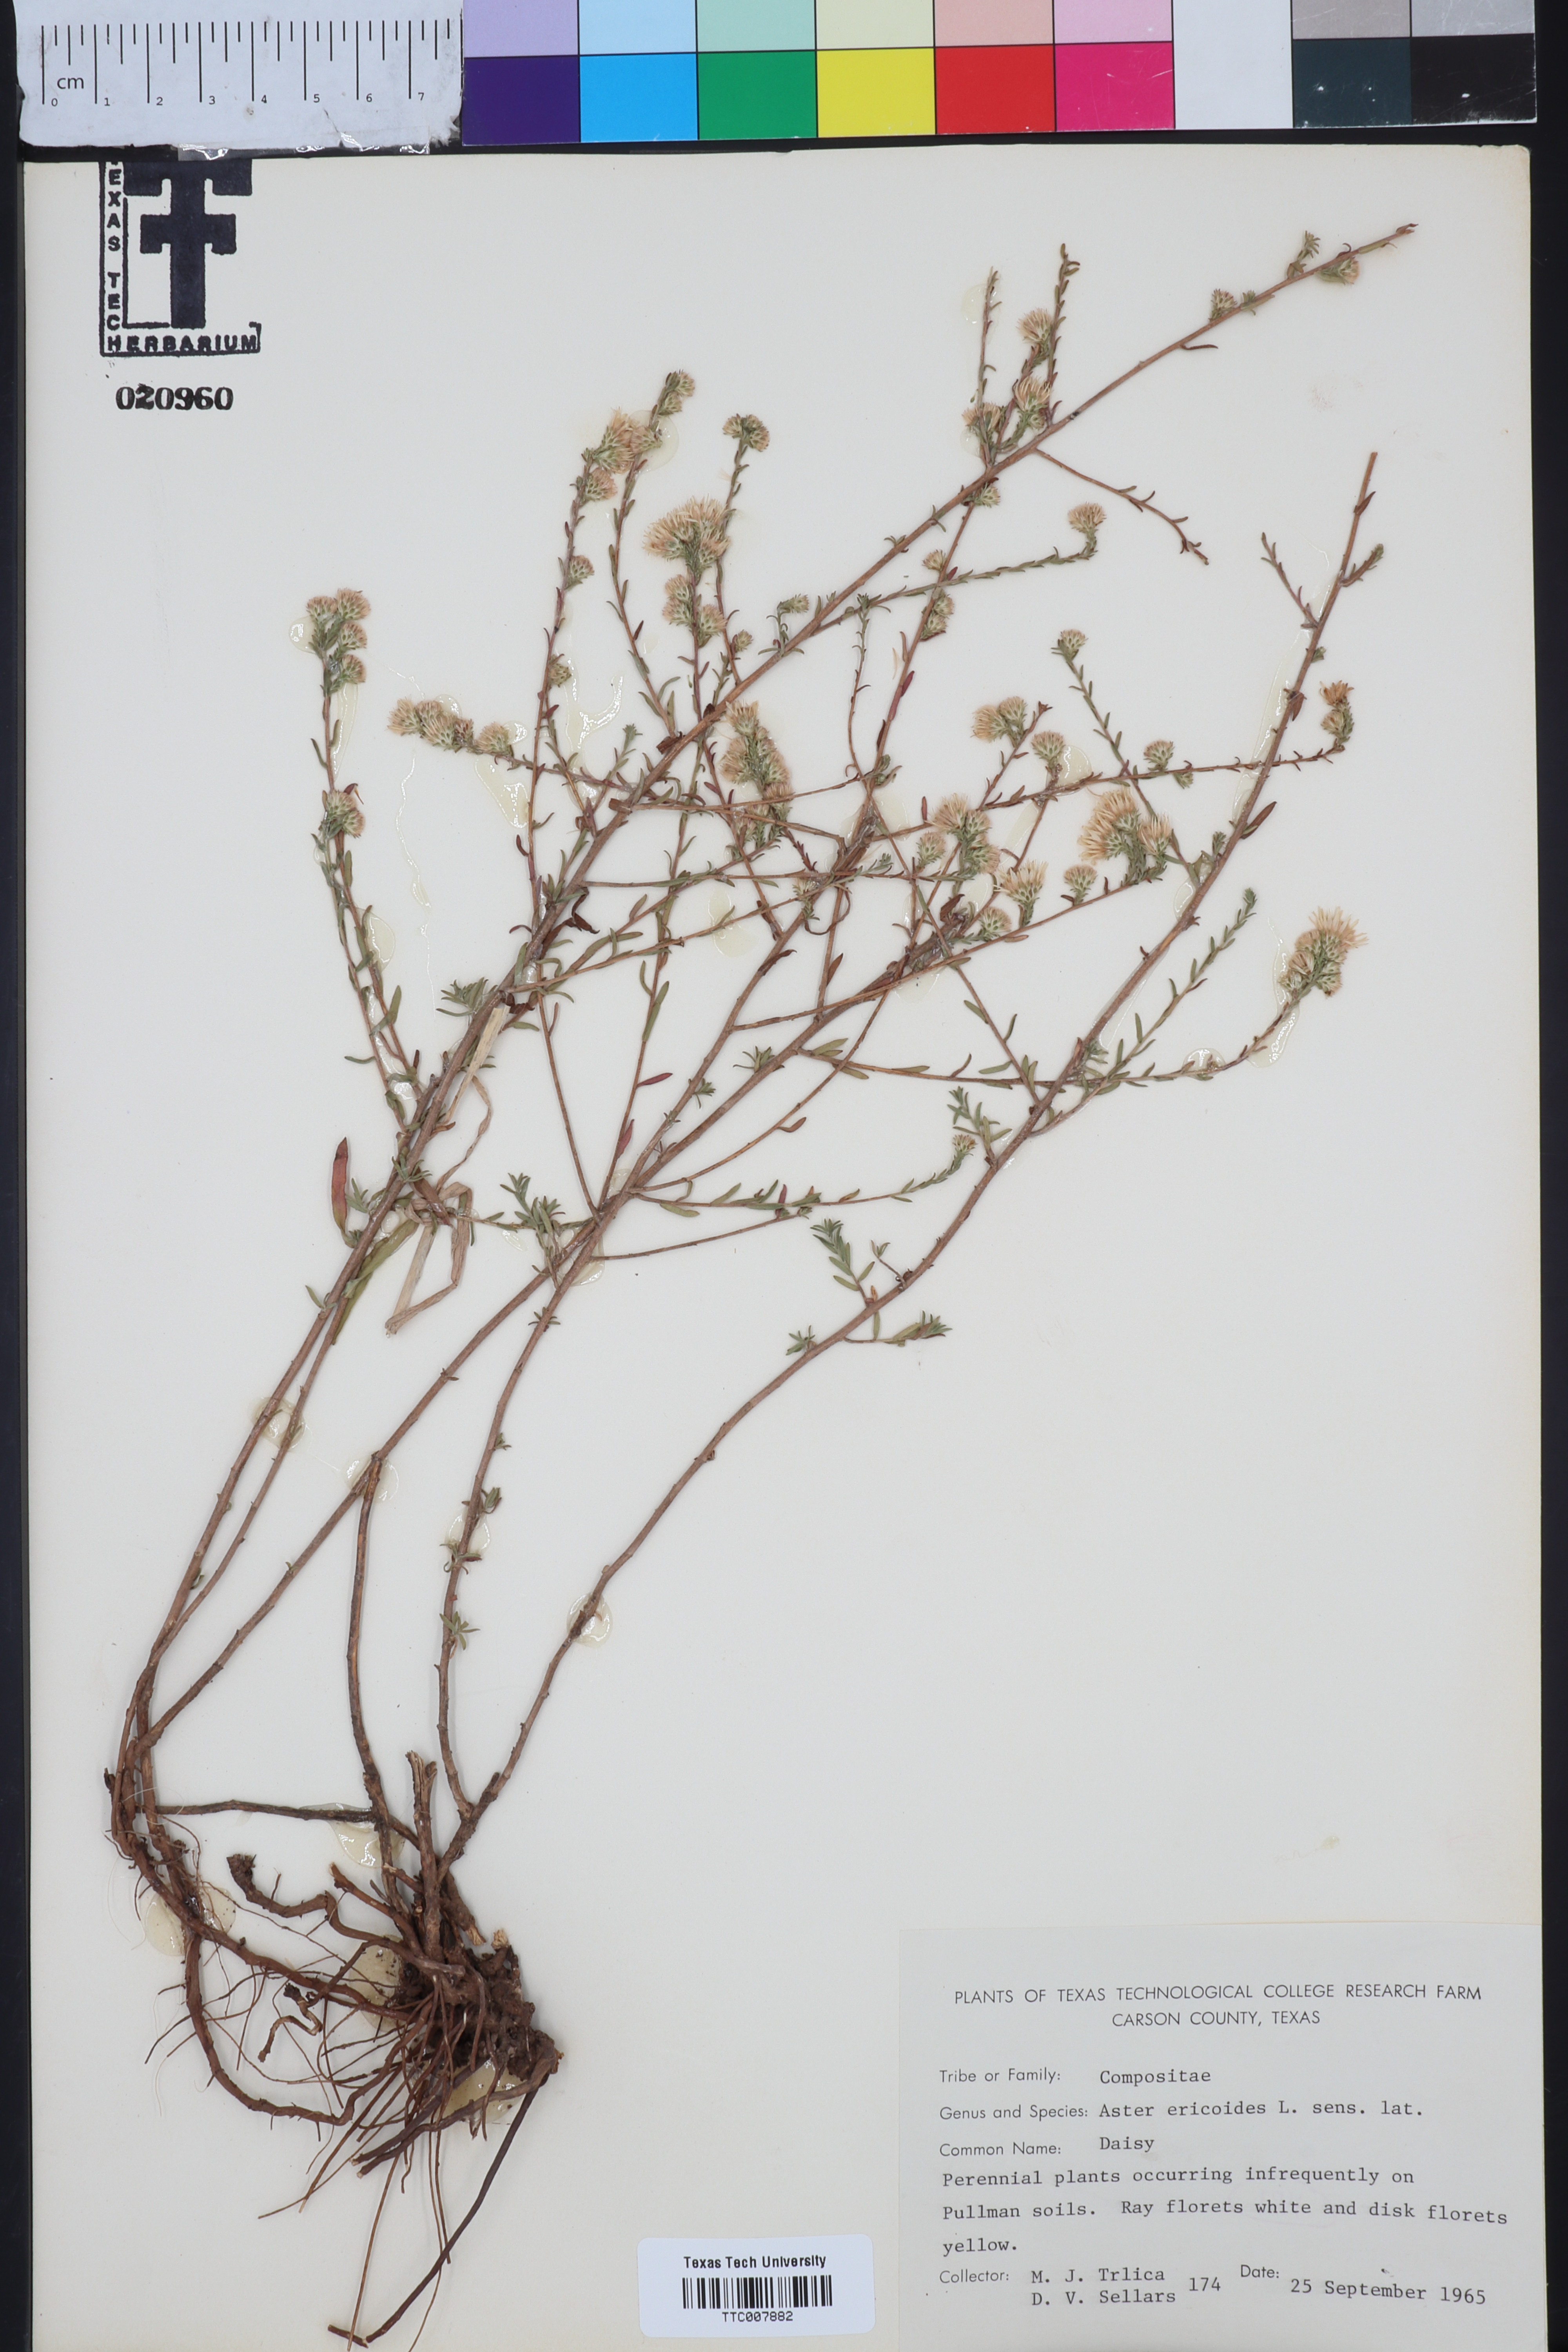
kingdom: Plantae
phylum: Tracheophyta
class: Magnoliopsida
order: Asterales
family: Asteraceae
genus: Symphyotrichum
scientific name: Symphyotrichum ericoides
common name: Heath aster
